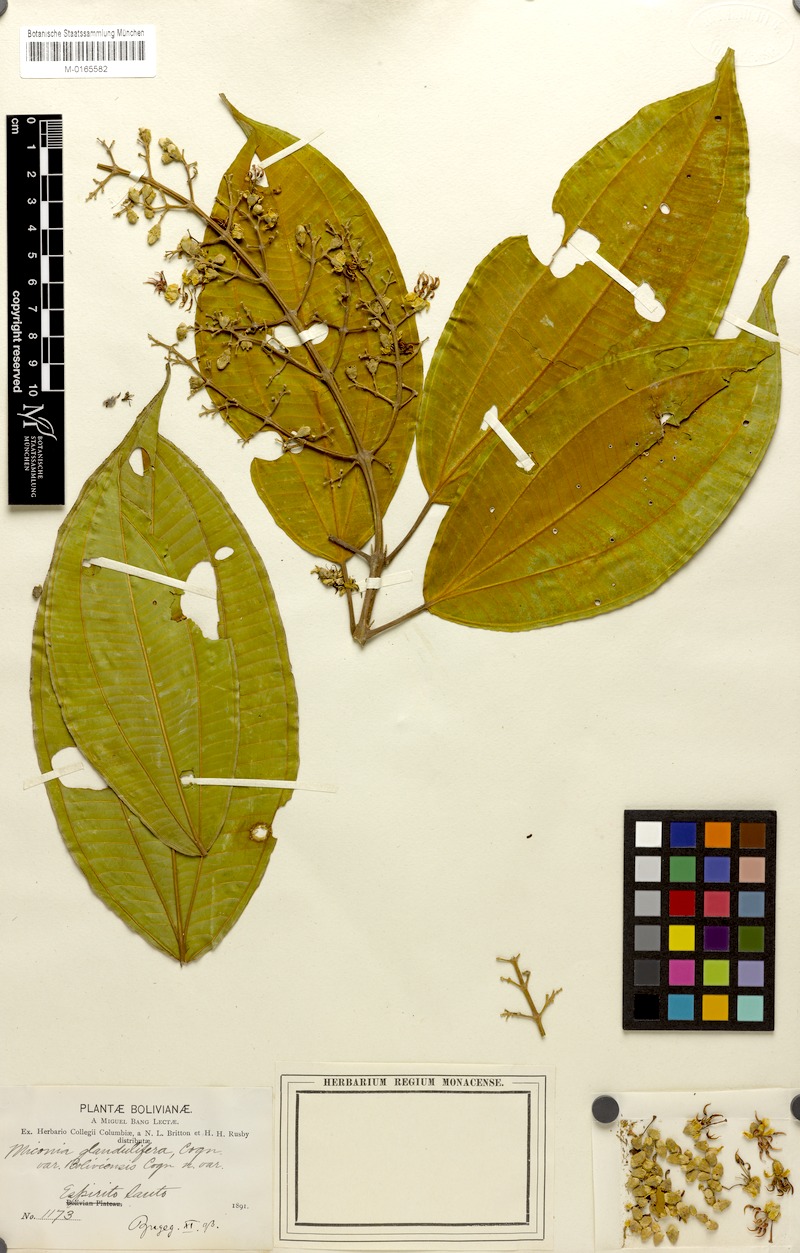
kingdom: Plantae
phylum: Tracheophyta
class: Magnoliopsida
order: Myrtales
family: Melastomataceae
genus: Miconia
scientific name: Miconia subandicola
